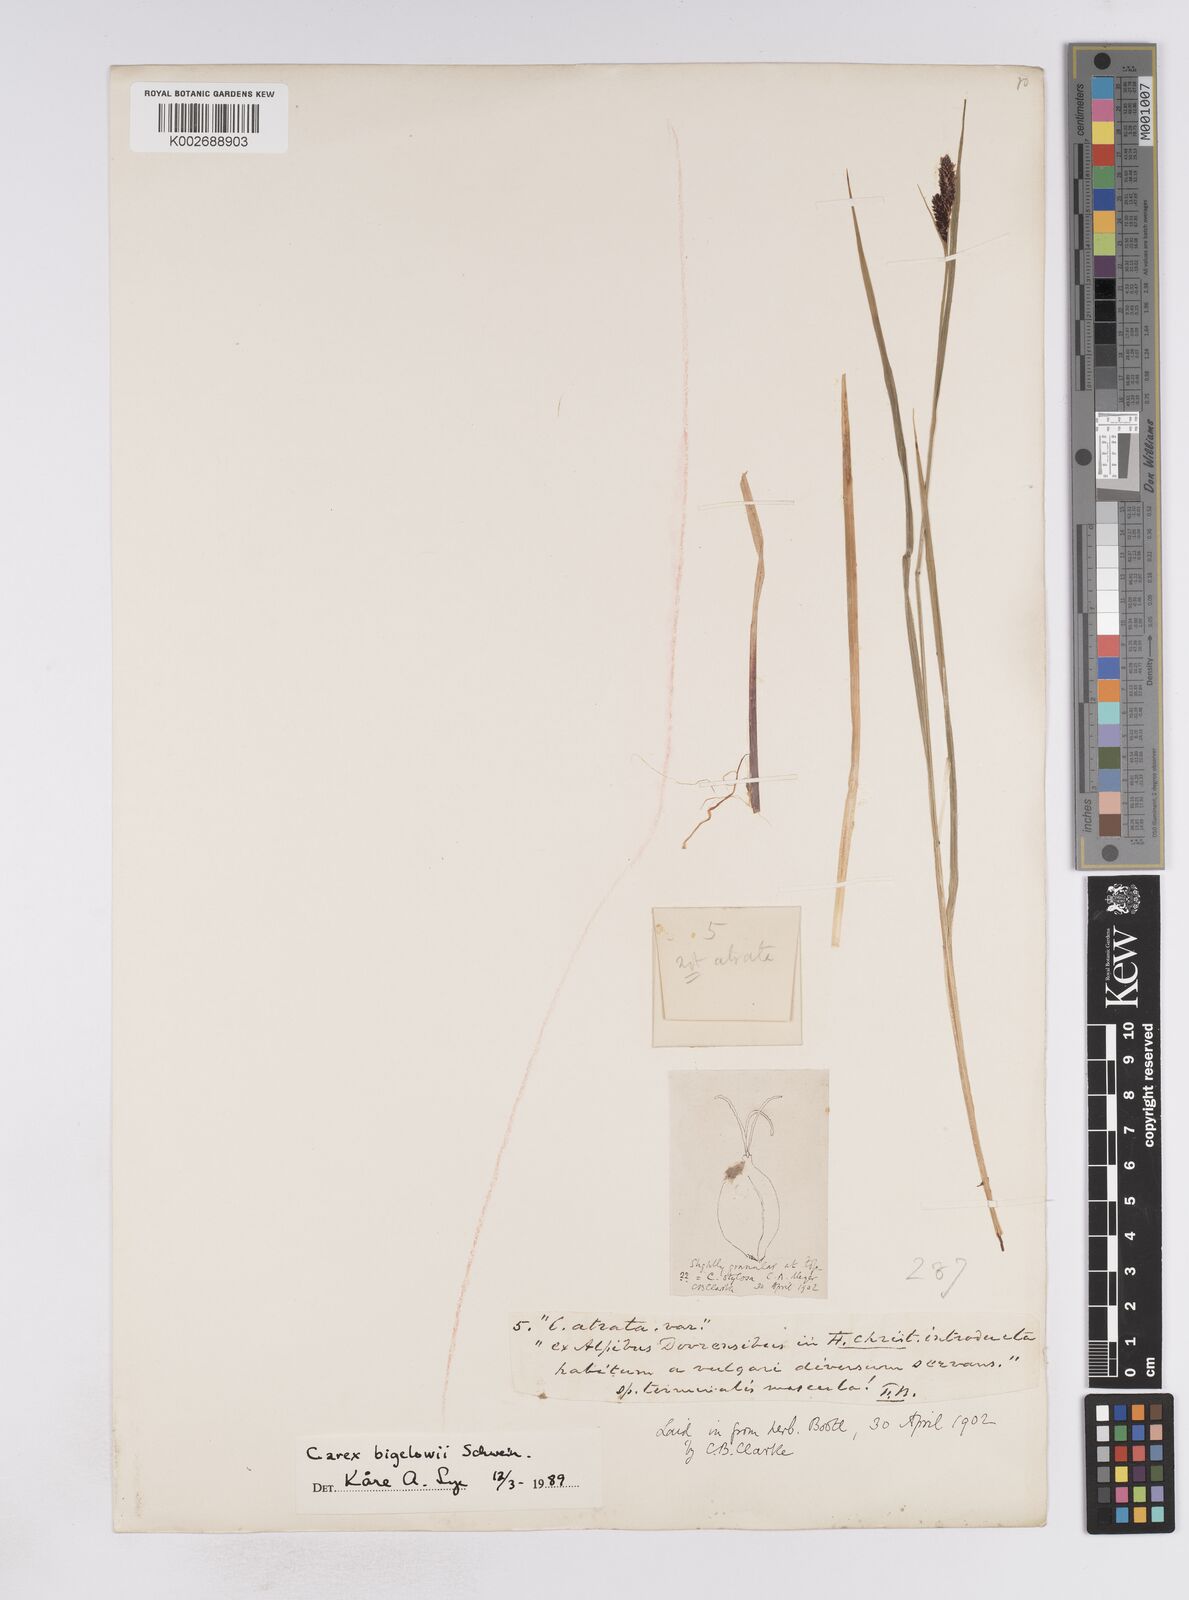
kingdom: Plantae
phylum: Tracheophyta
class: Liliopsida
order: Poales
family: Cyperaceae
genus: Carex
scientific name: Carex stylosa
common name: Long-styled sedge
